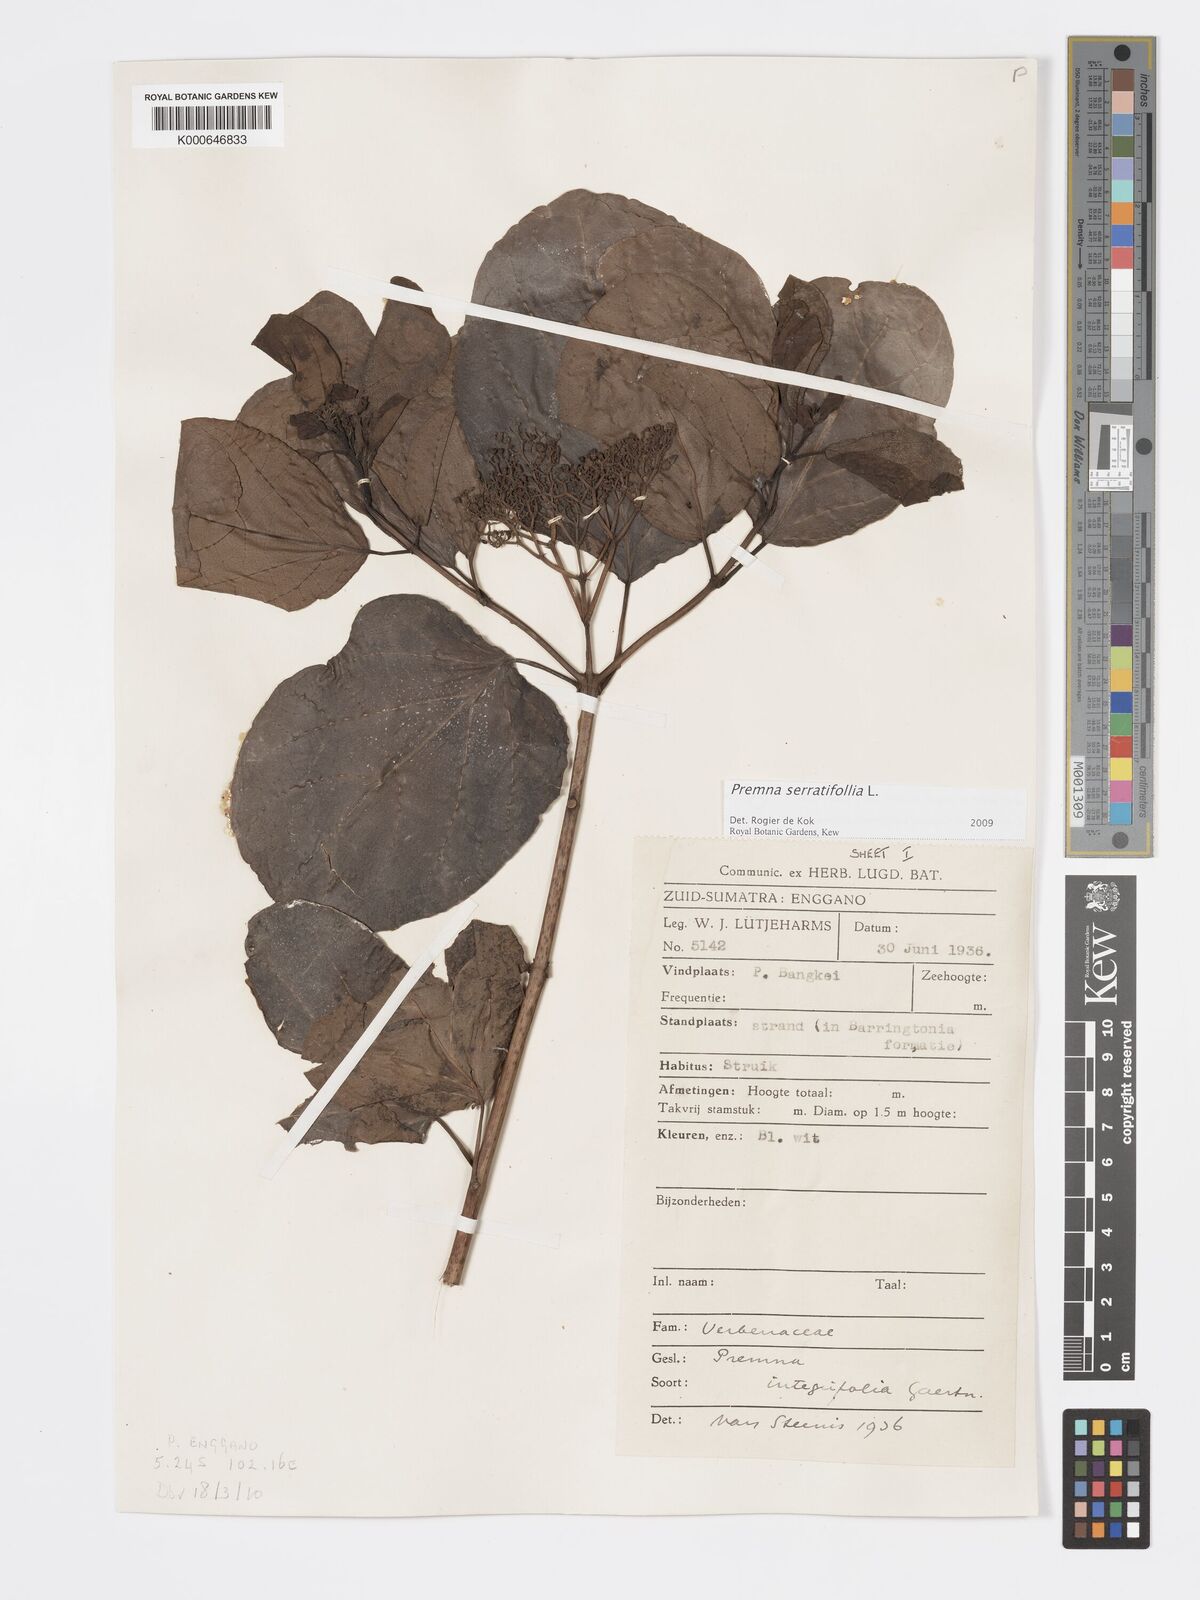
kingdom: Plantae
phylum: Tracheophyta
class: Magnoliopsida
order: Lamiales
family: Lamiaceae
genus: Premna
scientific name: Premna serratifolia
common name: Bastard guelder
